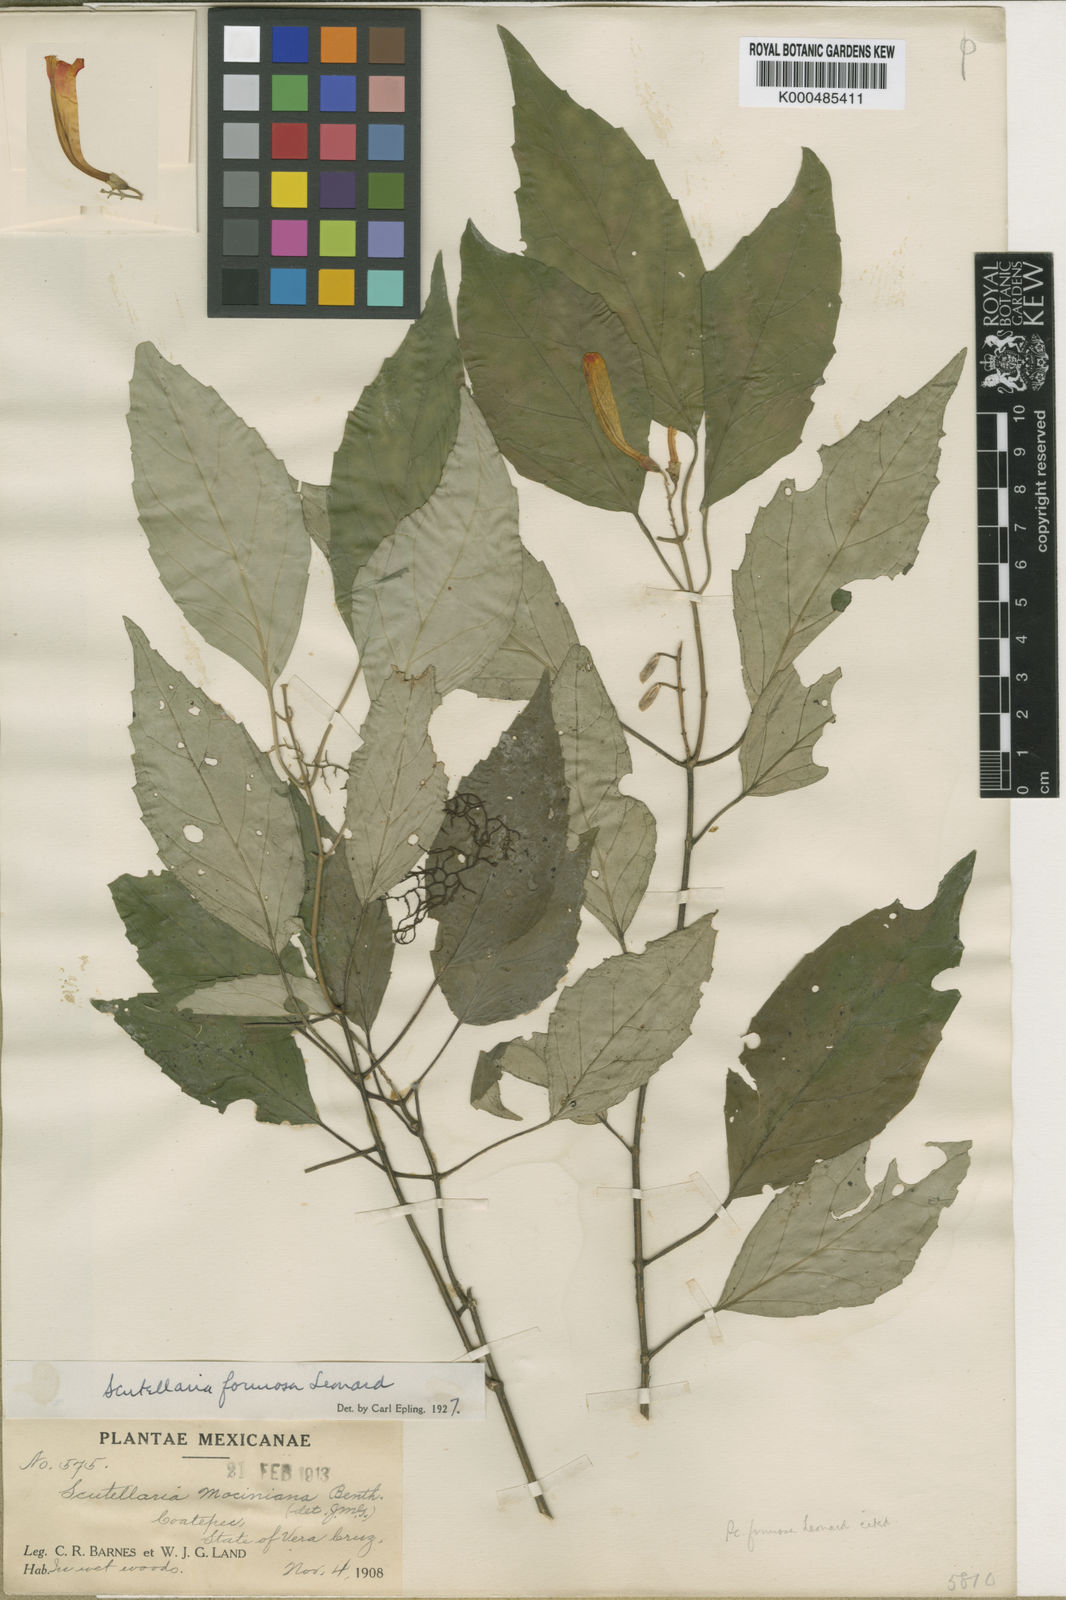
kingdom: Plantae
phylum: Tracheophyta
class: Magnoliopsida
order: Lamiales
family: Lamiaceae
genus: Scutellaria
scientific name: Scutellaria formosa
